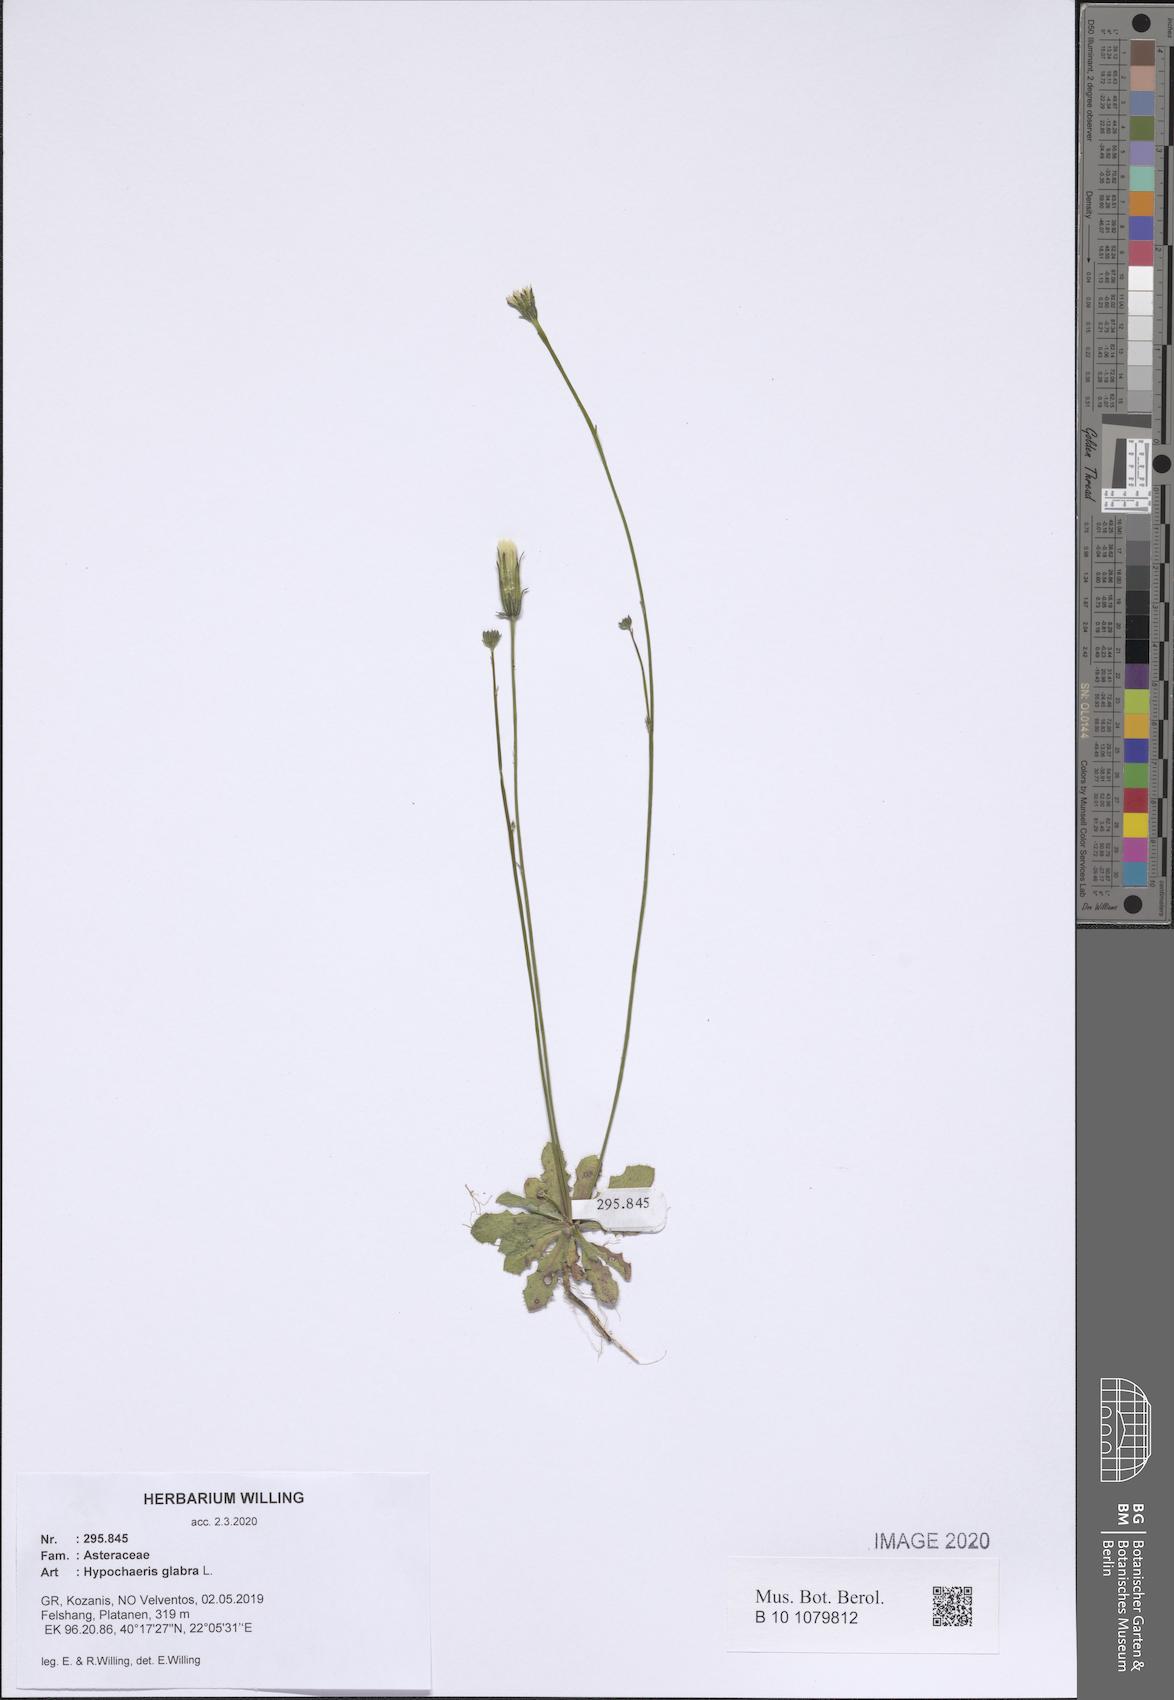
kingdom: Plantae
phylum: Tracheophyta
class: Magnoliopsida
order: Asterales
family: Asteraceae
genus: Hypochaeris
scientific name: Hypochaeris glabra
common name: Smooth catsear
